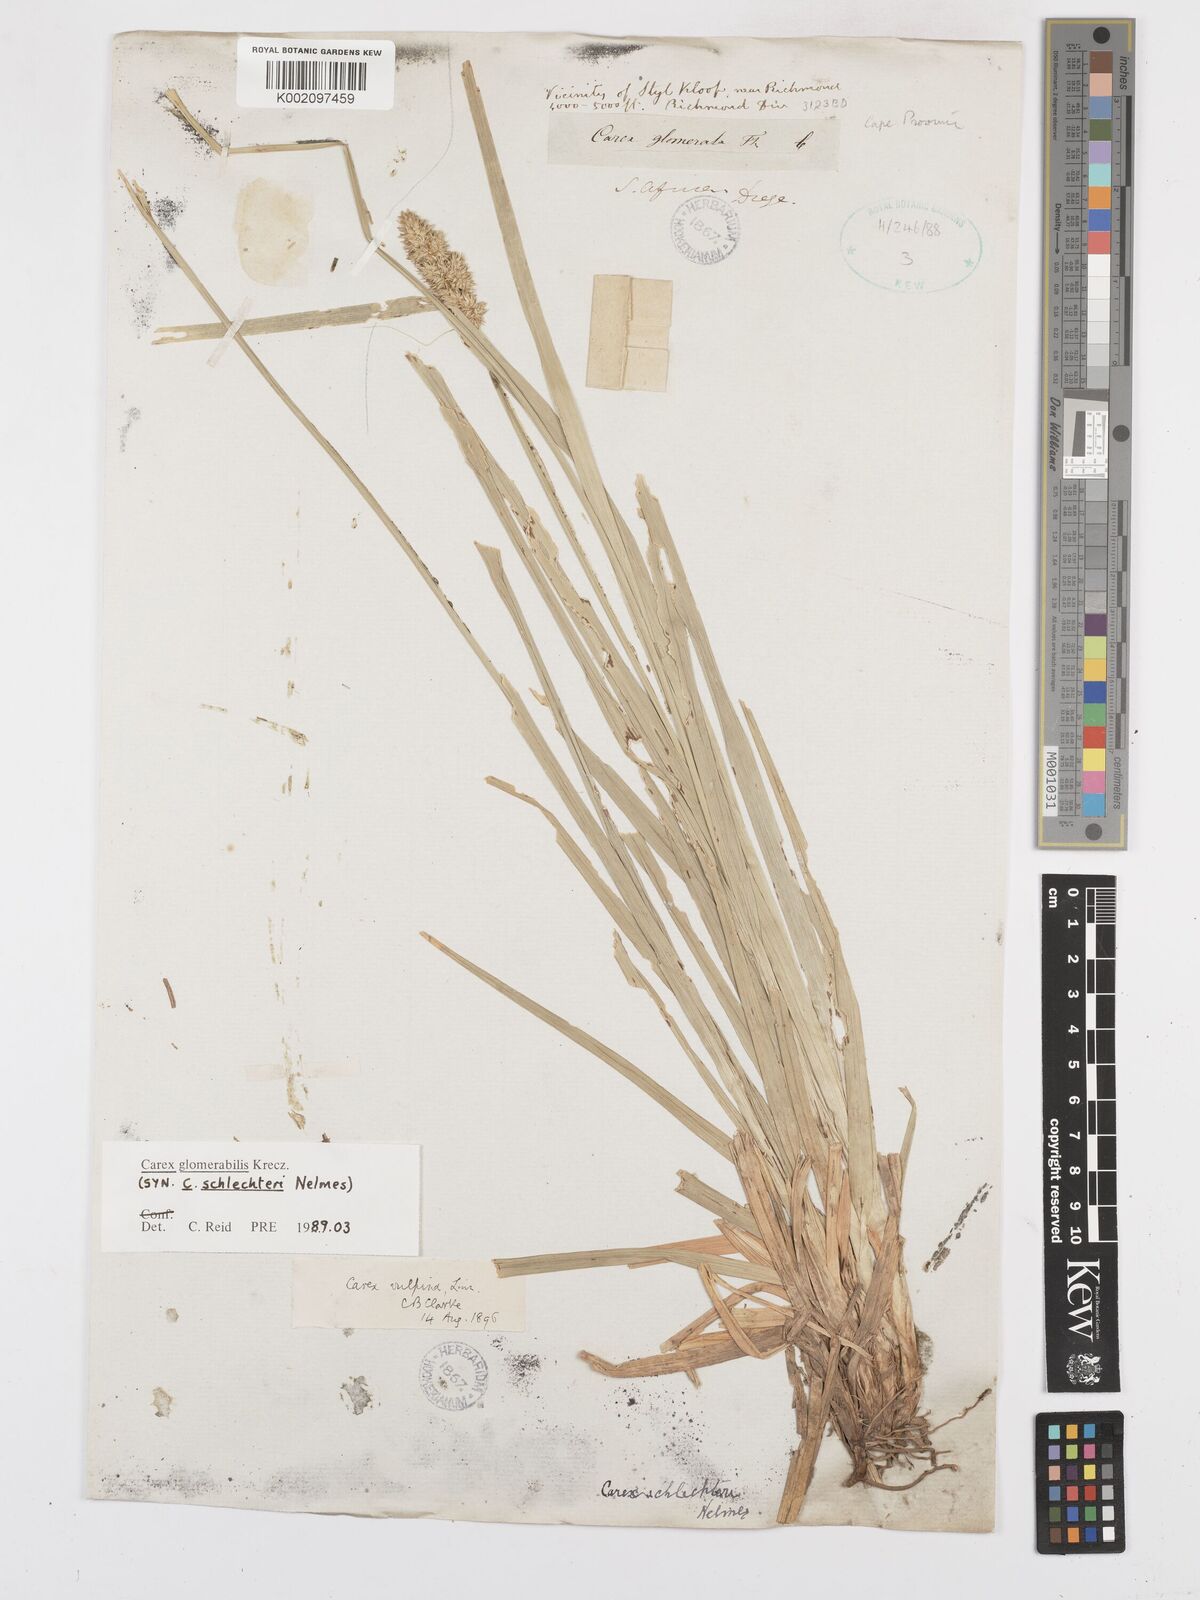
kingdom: Plantae
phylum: Tracheophyta
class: Liliopsida
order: Poales
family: Cyperaceae
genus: Carex
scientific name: Carex glomerata
